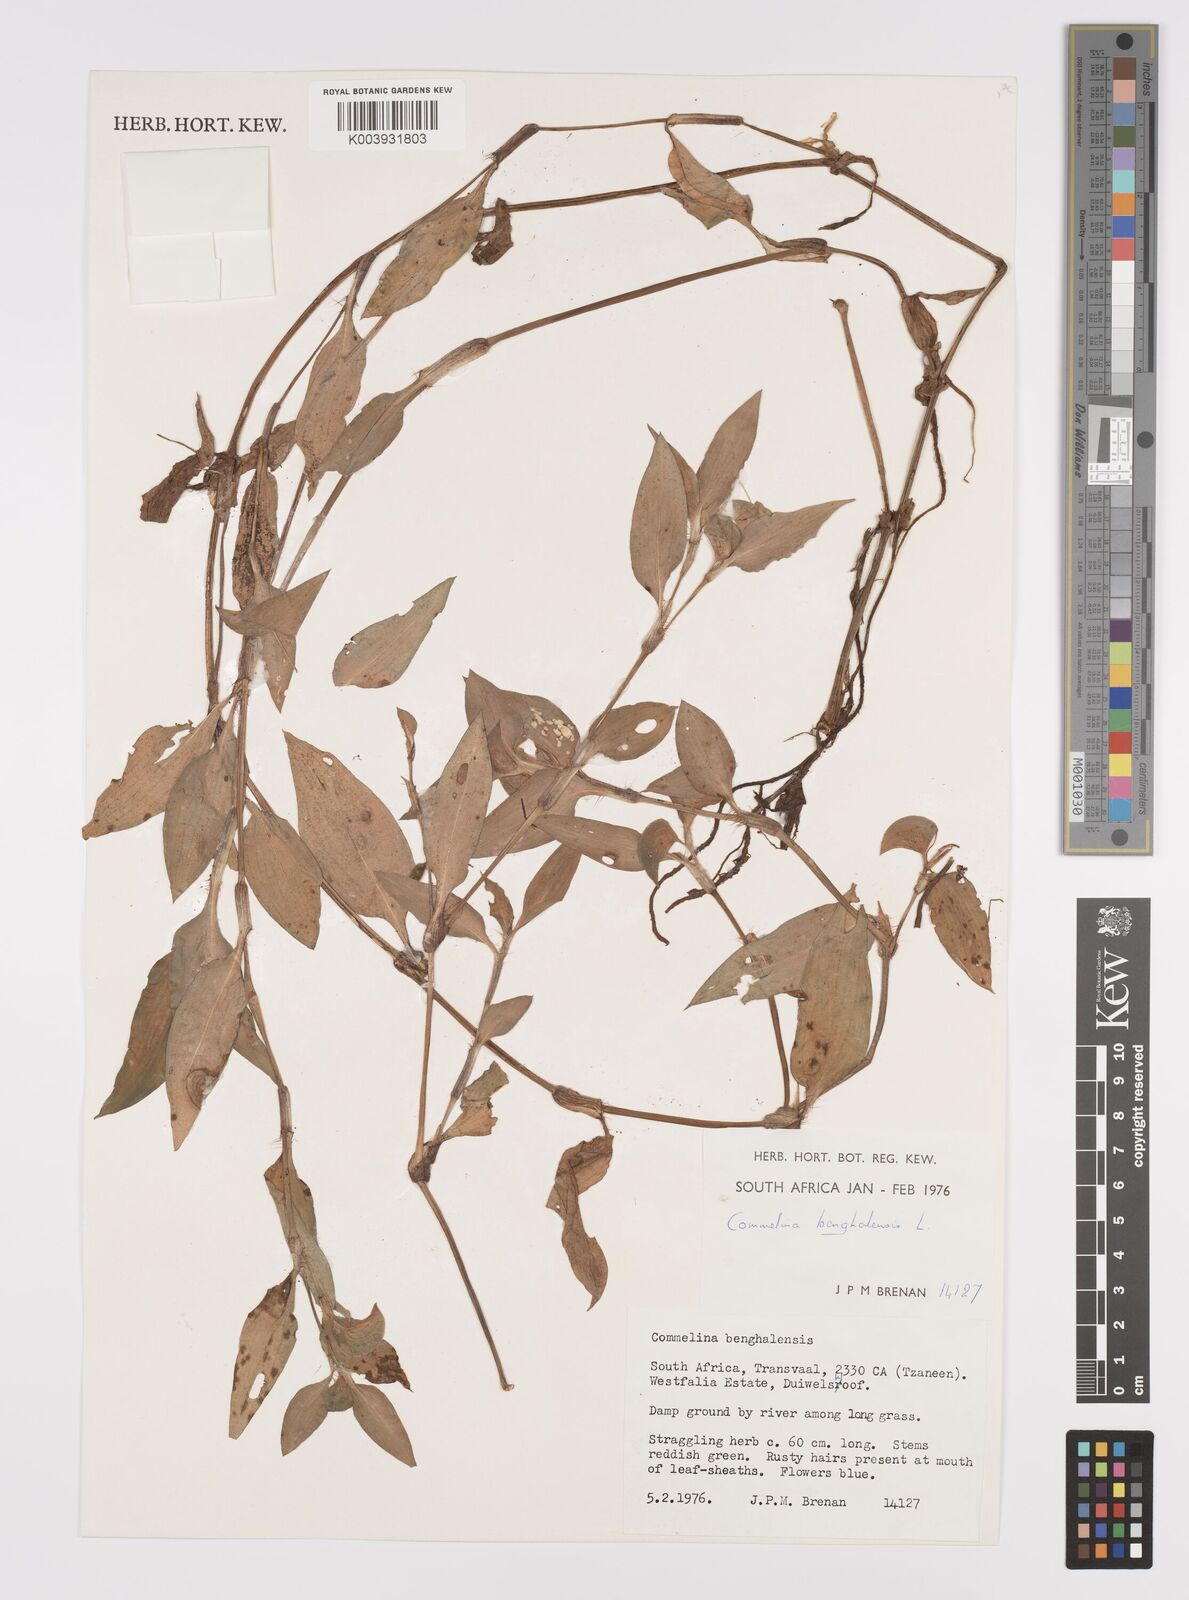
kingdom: Plantae
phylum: Tracheophyta
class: Liliopsida
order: Commelinales
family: Commelinaceae
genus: Commelina
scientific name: Commelina benghalensis
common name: Jio
